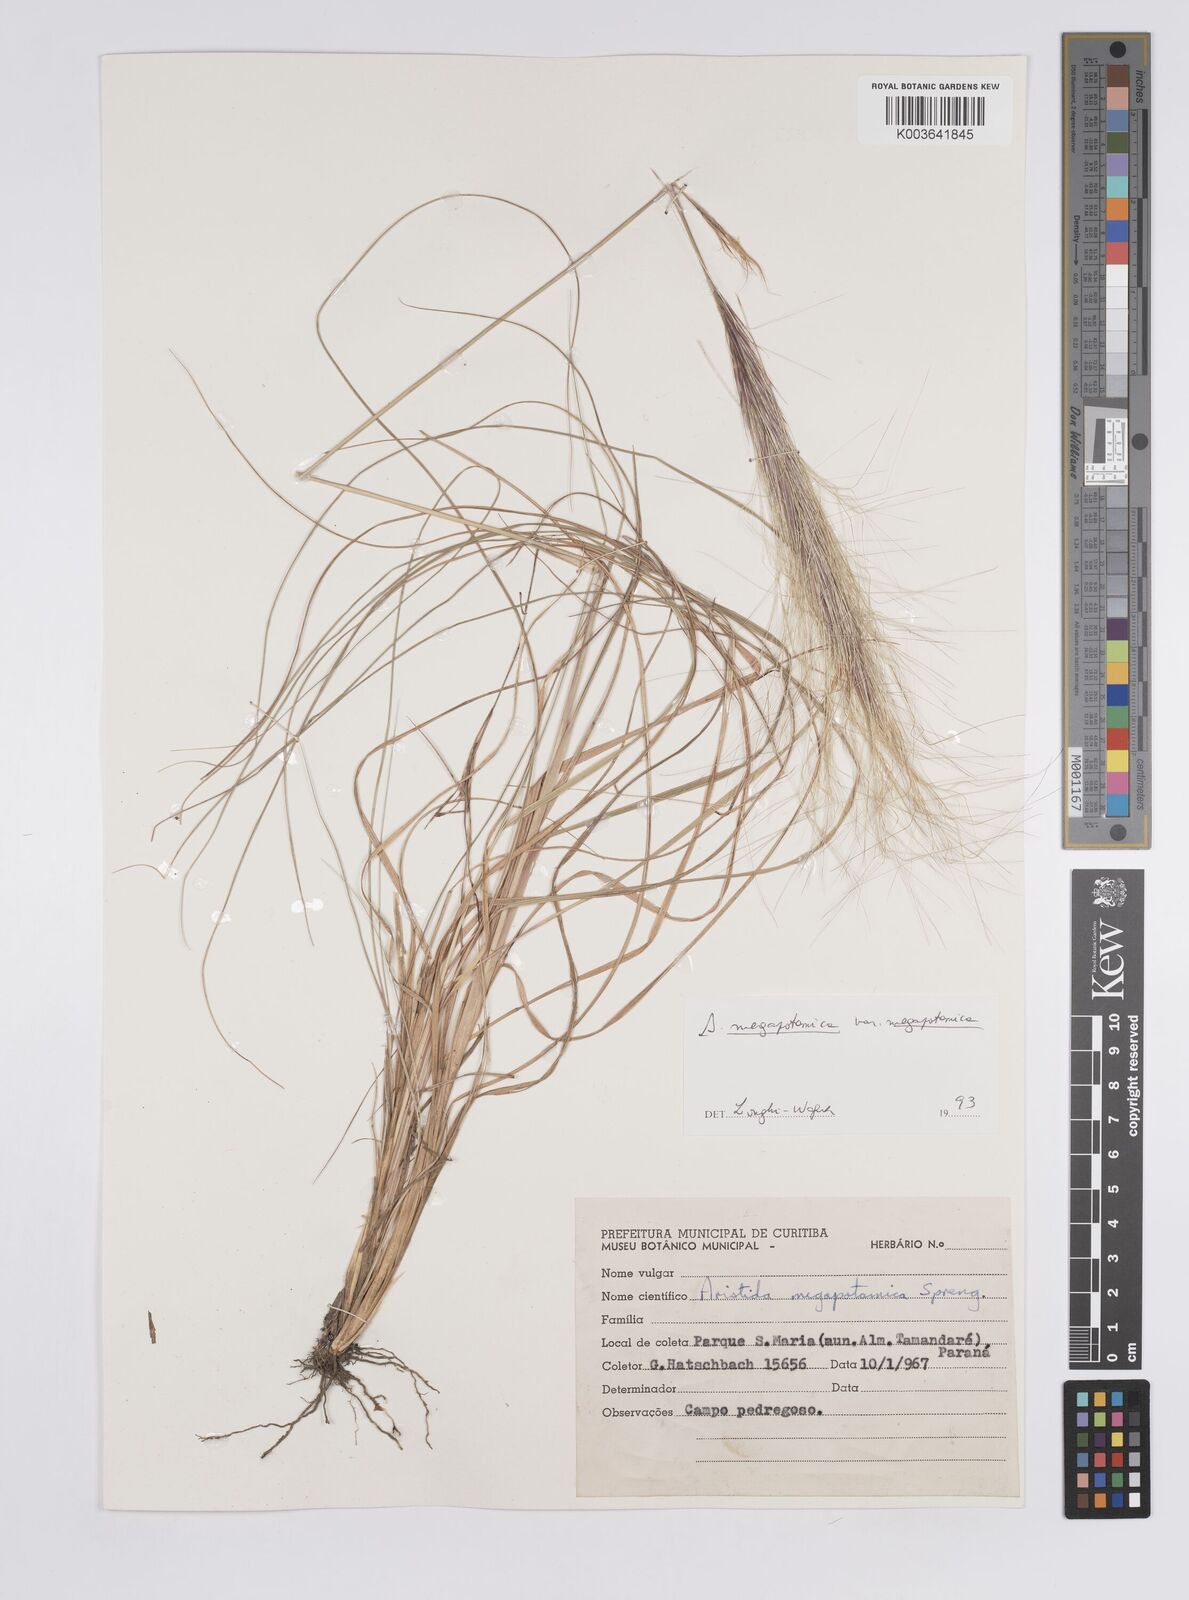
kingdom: Plantae
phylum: Tracheophyta
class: Liliopsida
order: Poales
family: Poaceae
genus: Aristida
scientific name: Aristida megapotamica
